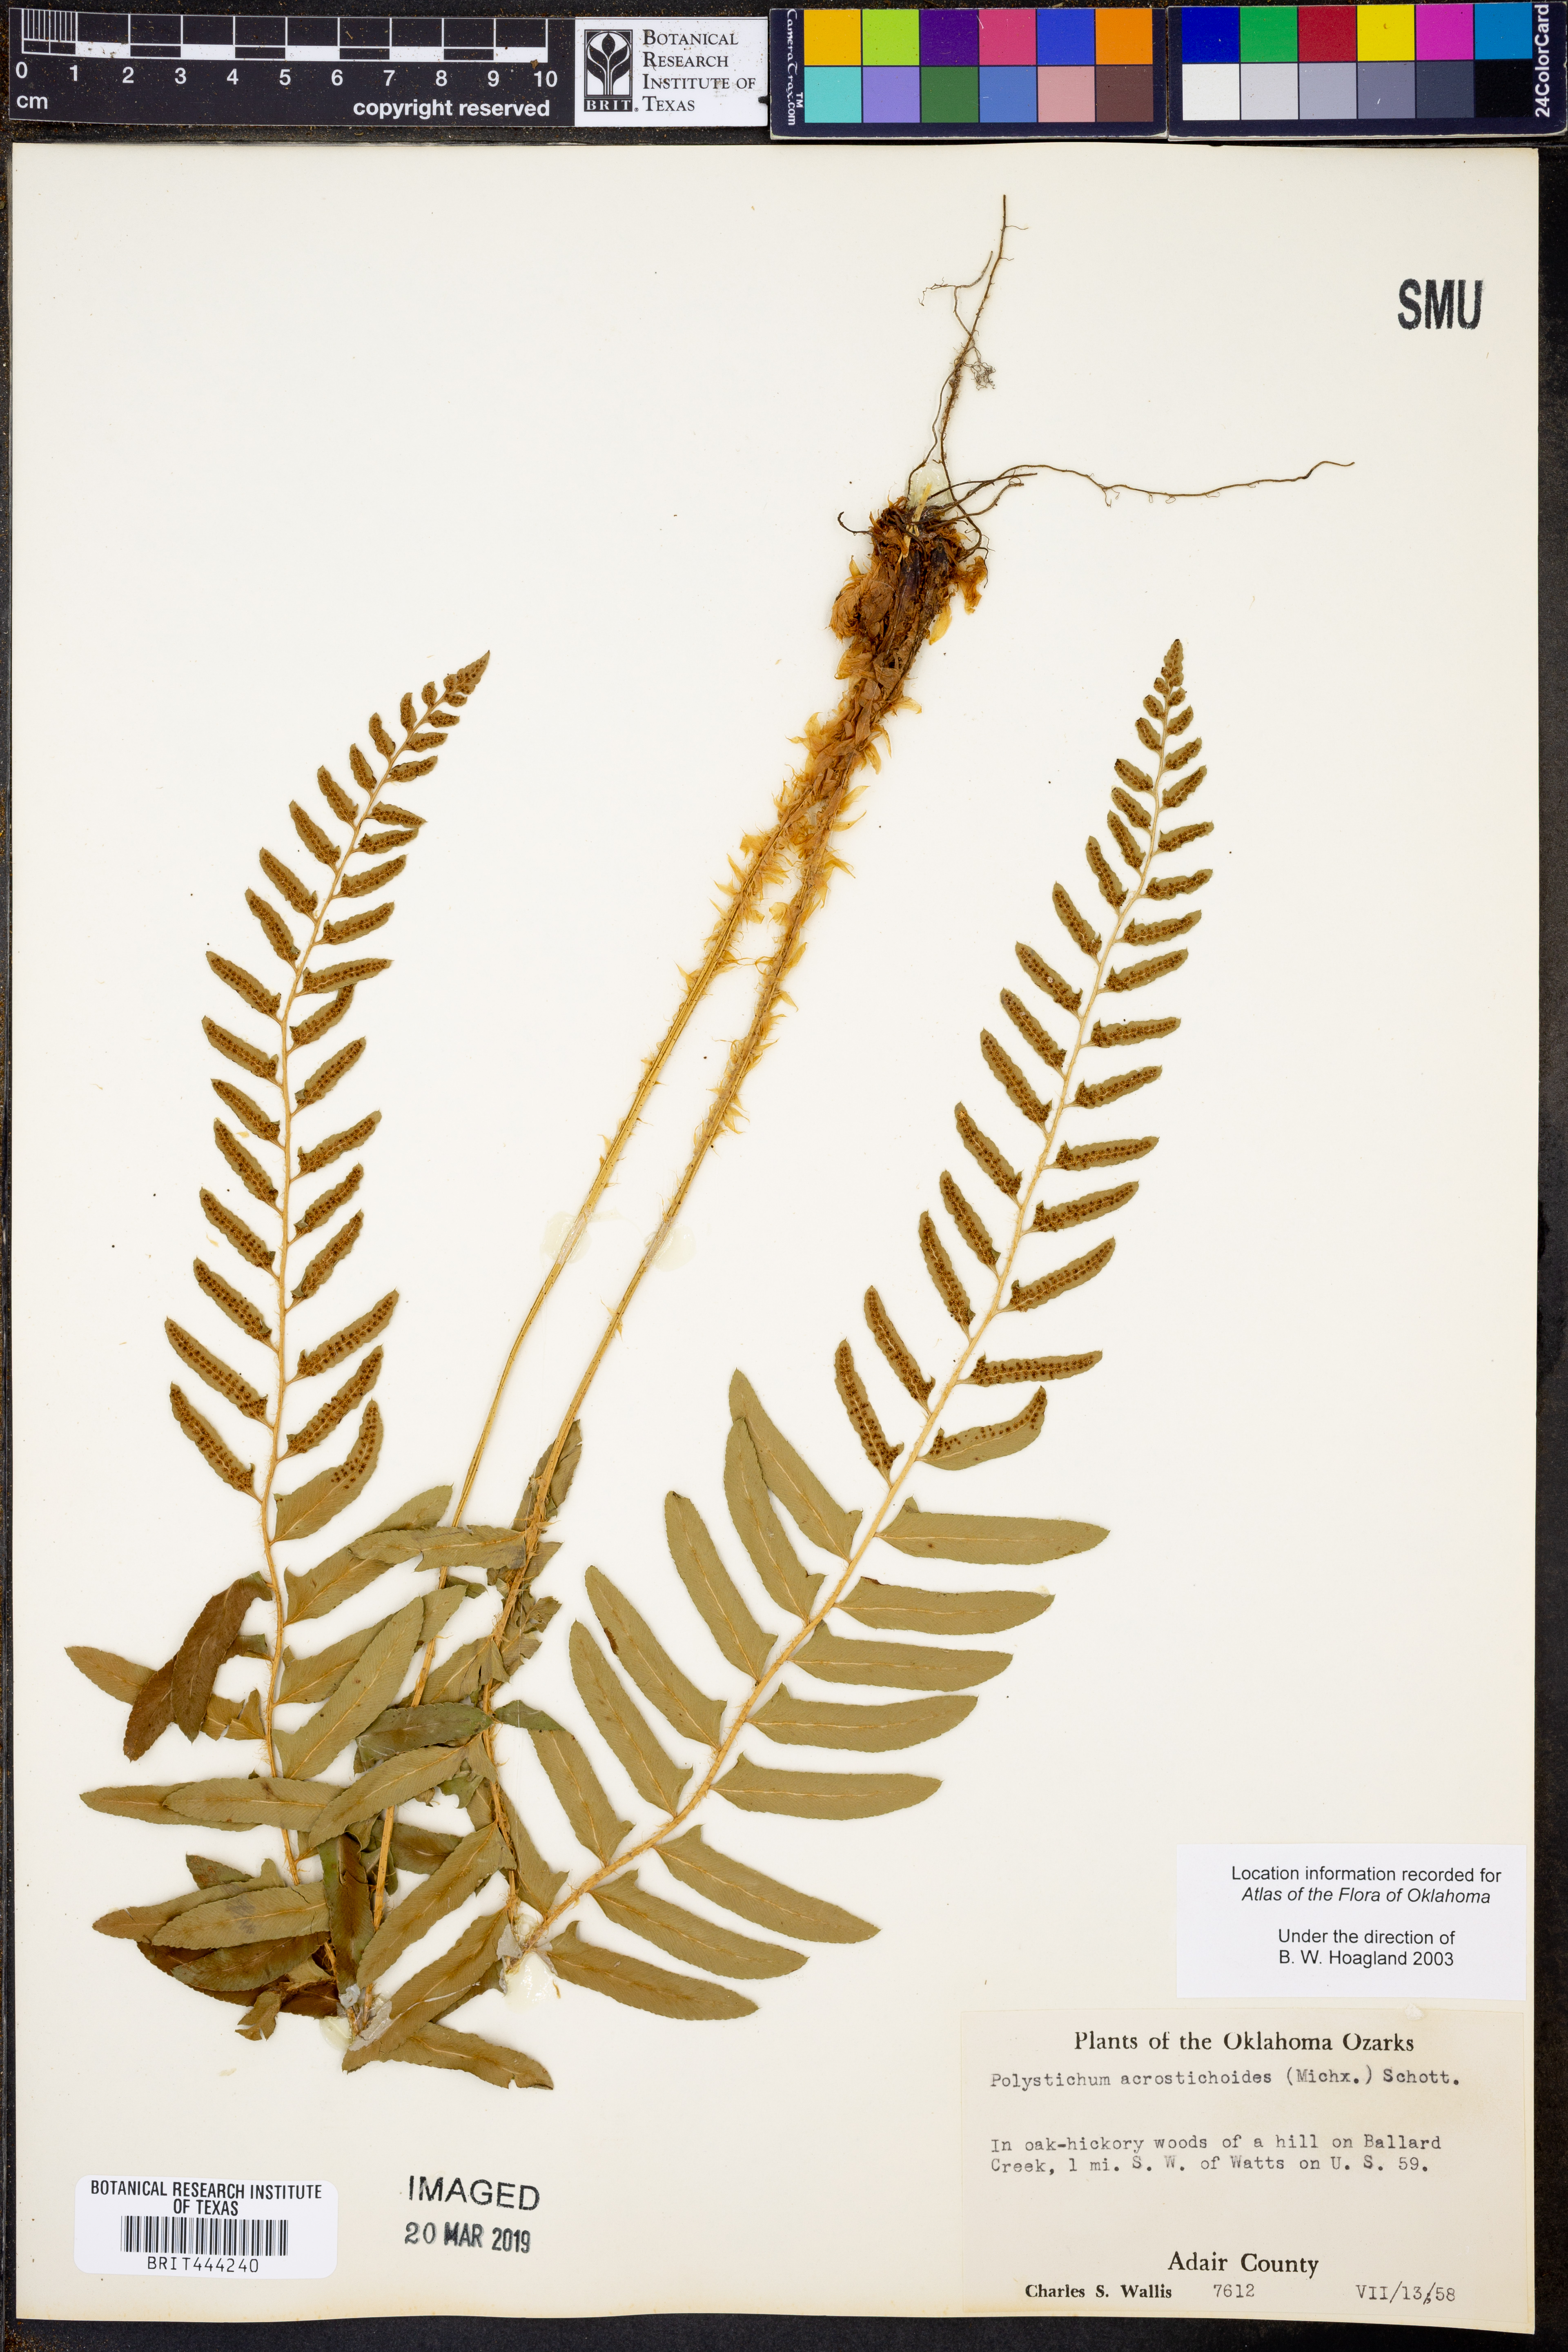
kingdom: Plantae
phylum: Tracheophyta
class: Polypodiopsida
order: Polypodiales
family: Dryopteridaceae
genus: Polystichum
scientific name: Polystichum acrostichoides
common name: Christmas fern
